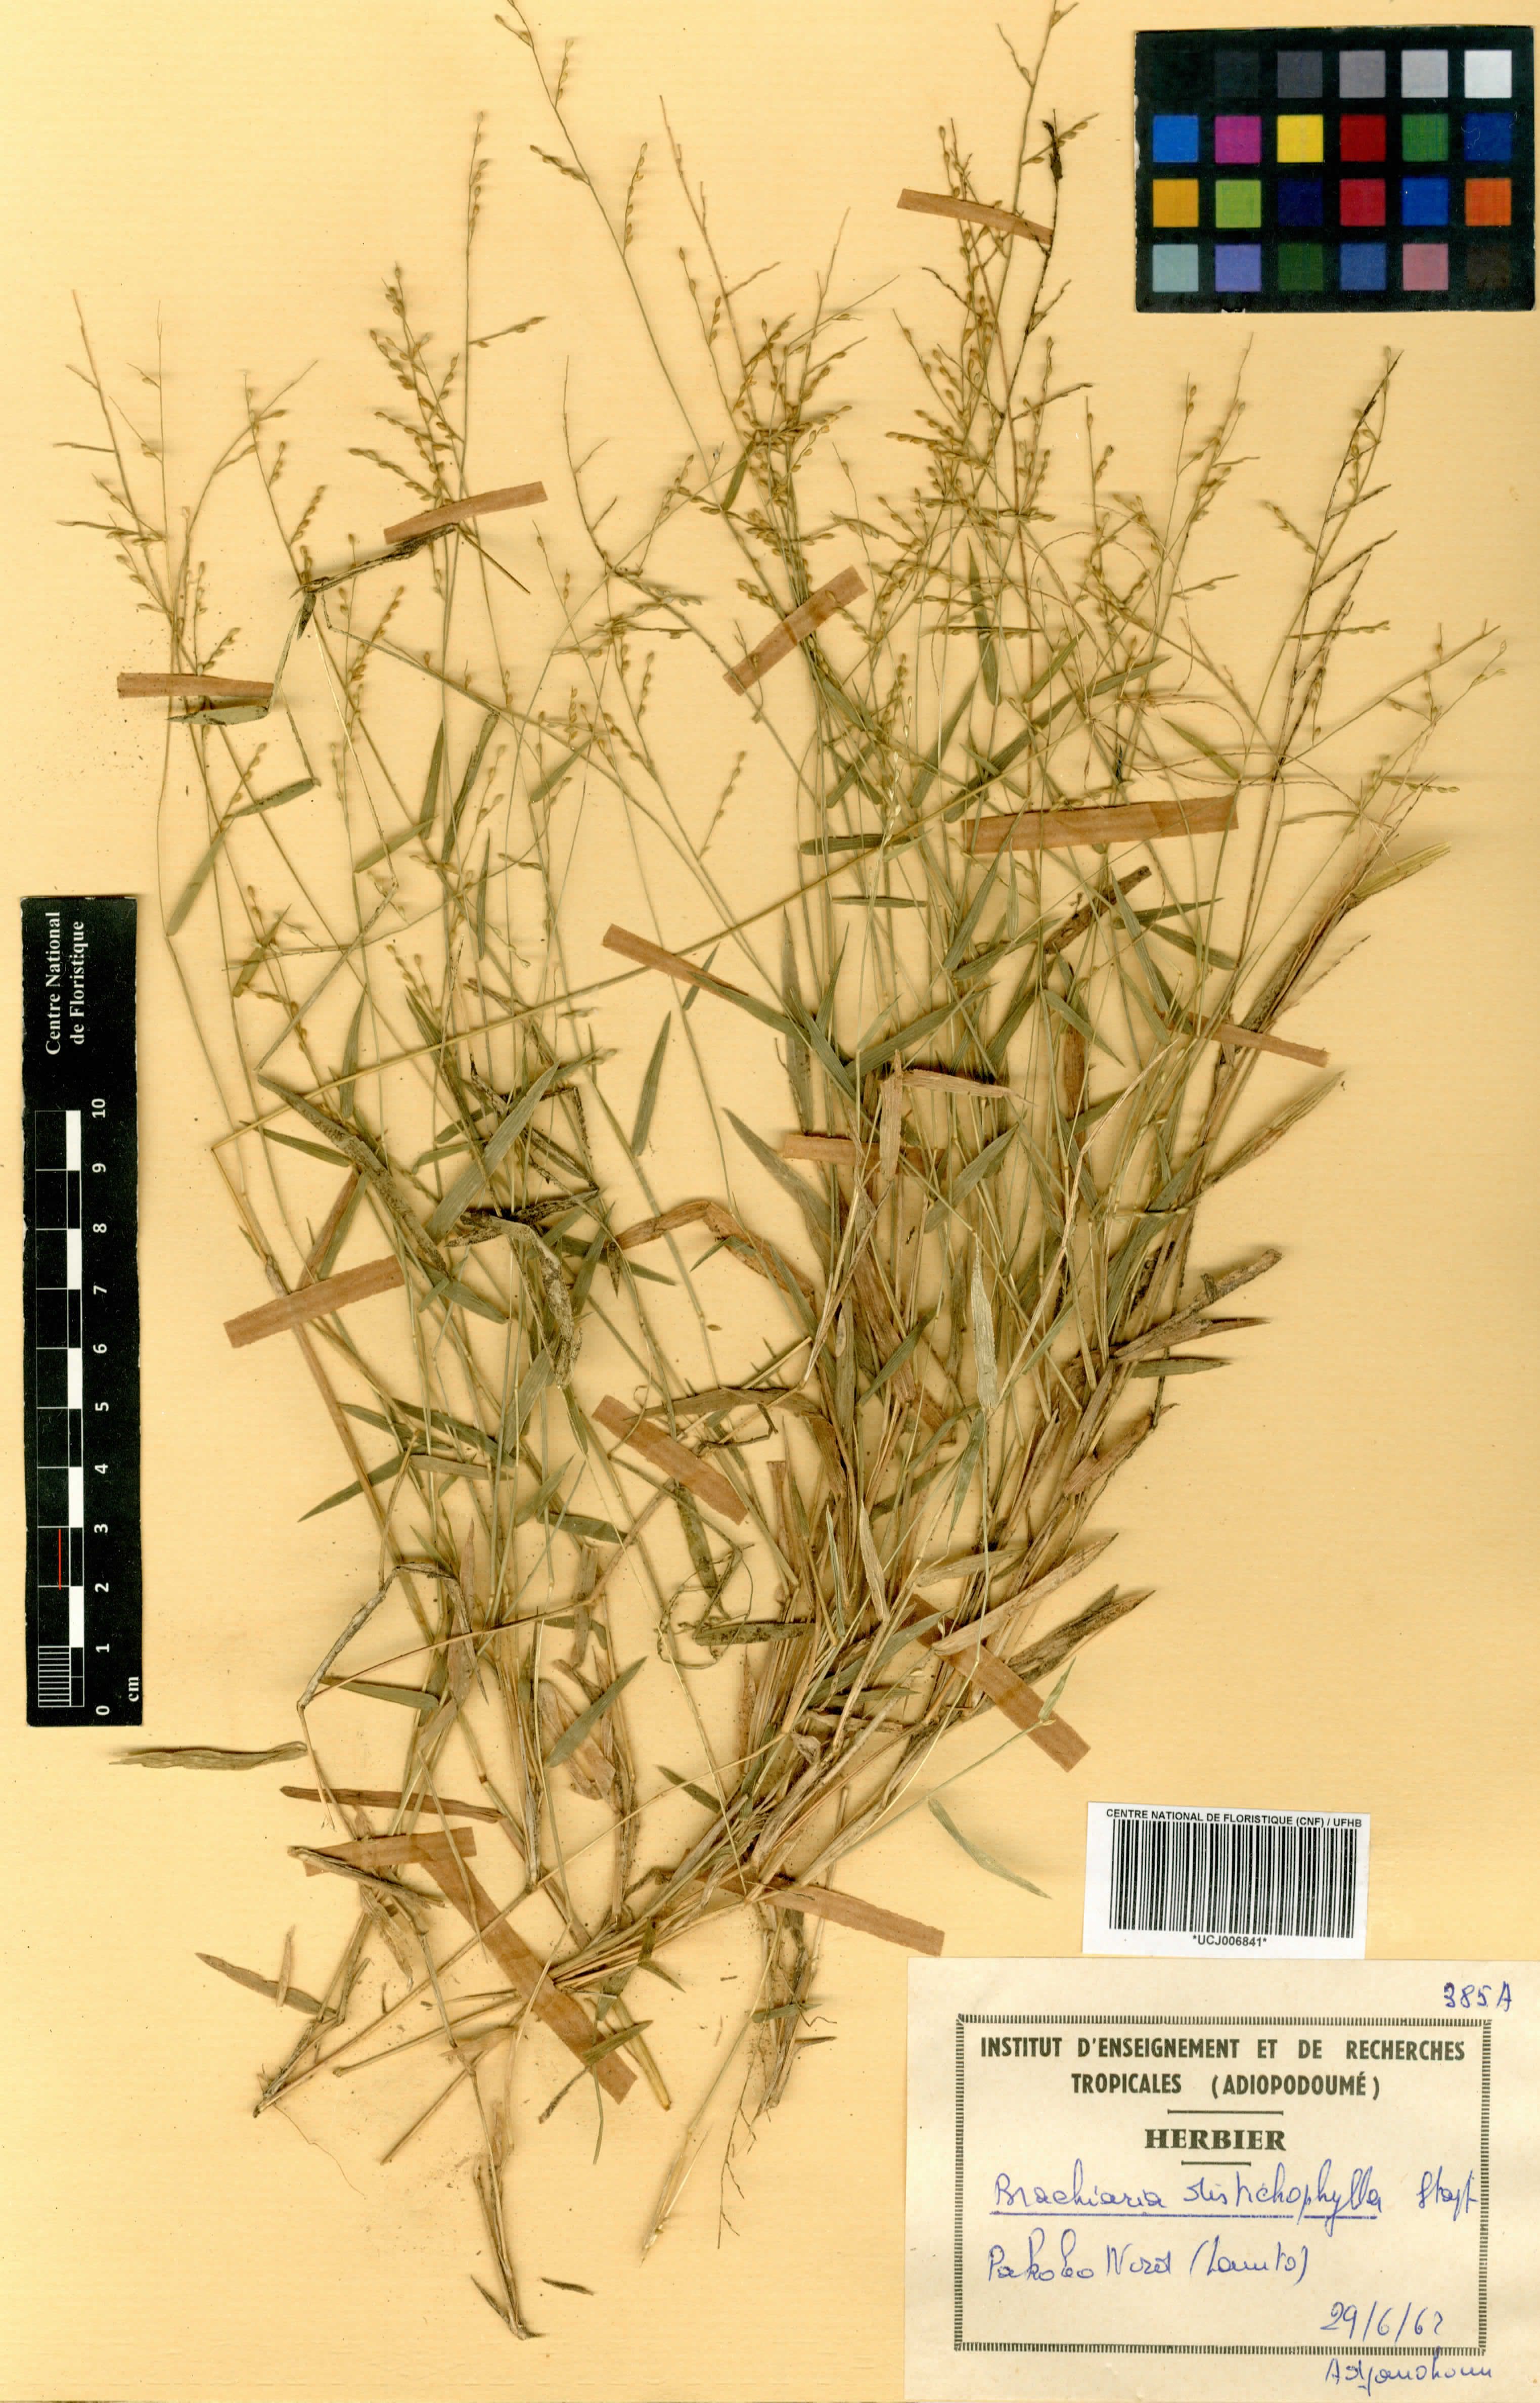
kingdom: Plantae
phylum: Tracheophyta
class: Liliopsida
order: Poales
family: Poaceae
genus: Urochloa
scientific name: Urochloa villosa
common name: Hairy signalgrass
